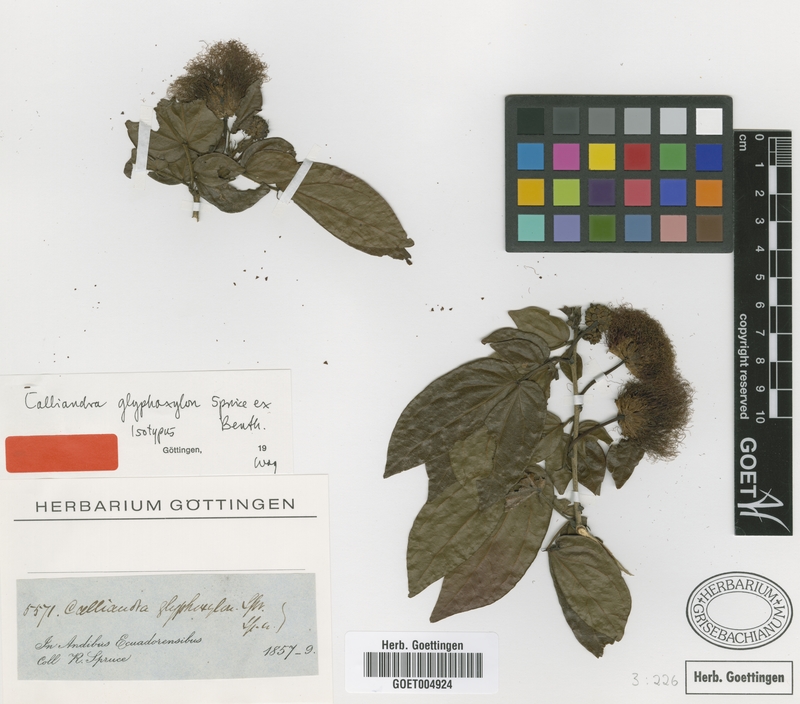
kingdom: Plantae
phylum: Tracheophyta
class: Magnoliopsida
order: Fabales
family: Fabaceae
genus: Calliandra
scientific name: Calliandra glyphoxylon
